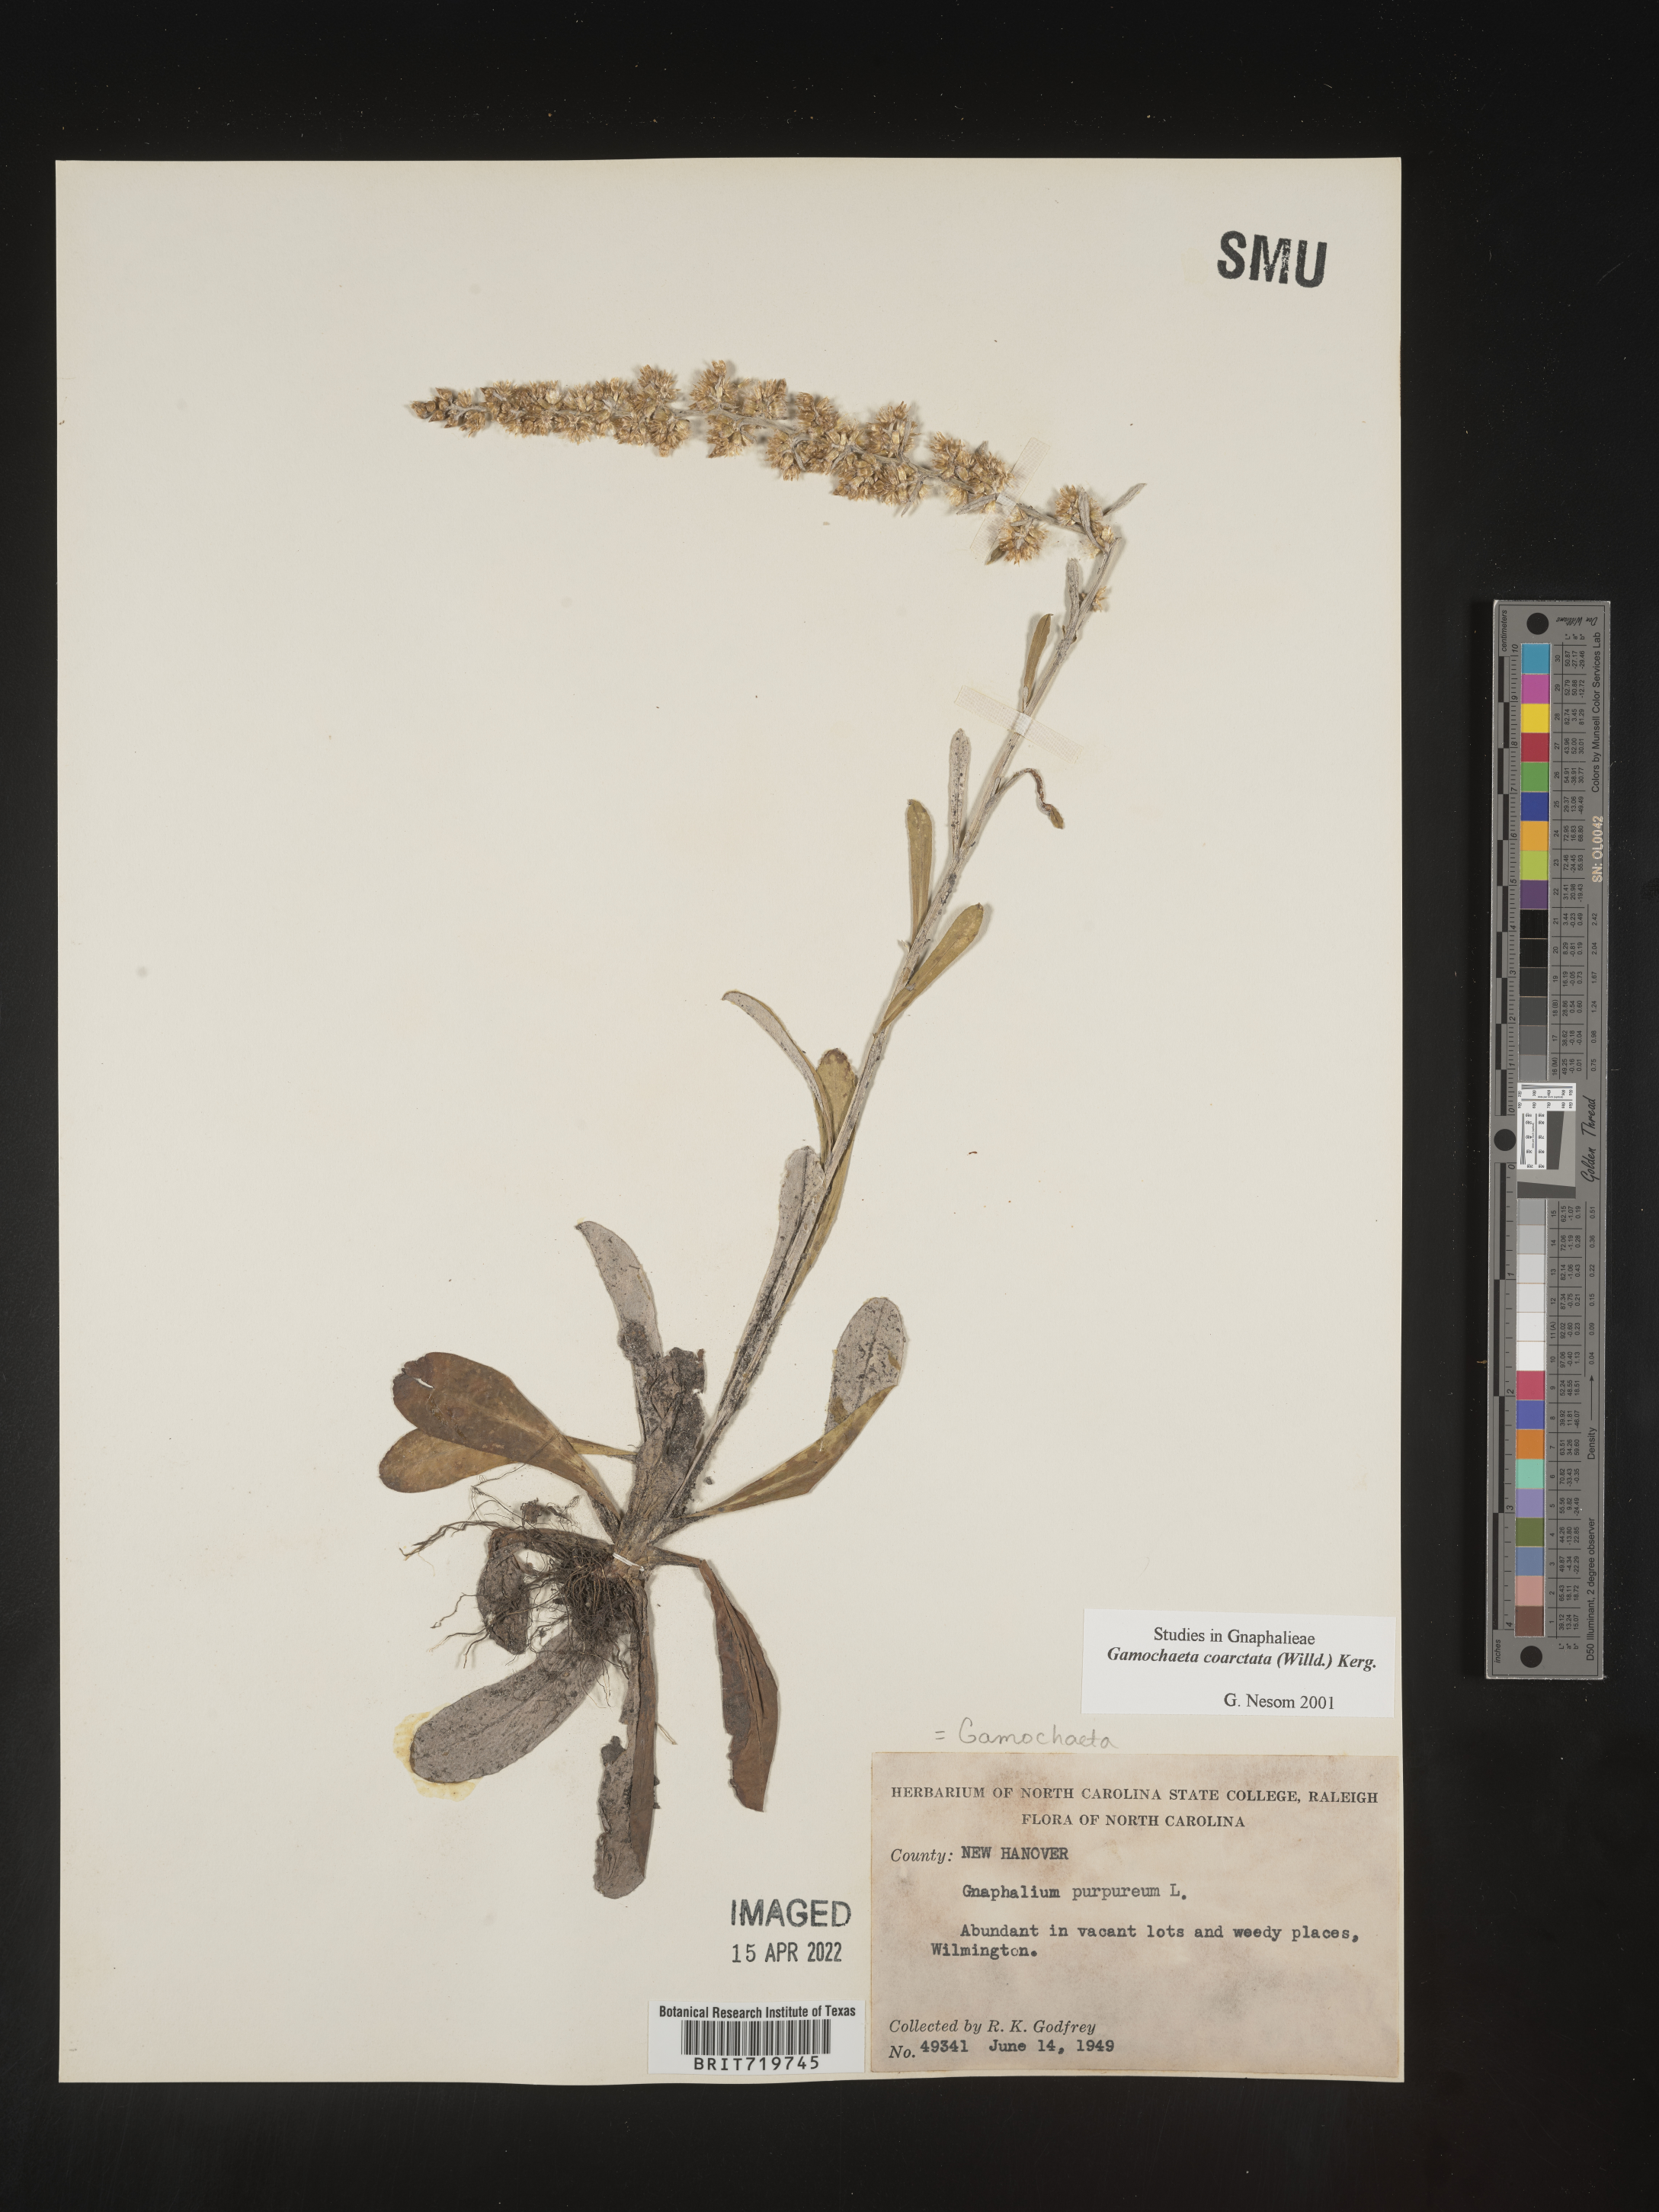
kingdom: Plantae
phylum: Tracheophyta
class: Magnoliopsida
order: Asterales
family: Asteraceae
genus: Gamochaeta
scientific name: Gamochaeta americana
